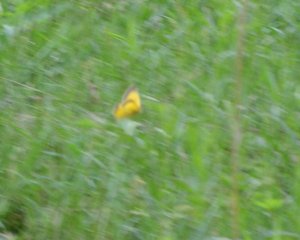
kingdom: Animalia
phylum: Arthropoda
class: Insecta
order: Lepidoptera
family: Pieridae
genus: Colias
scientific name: Colias eurytheme
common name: Orange Sulphur
